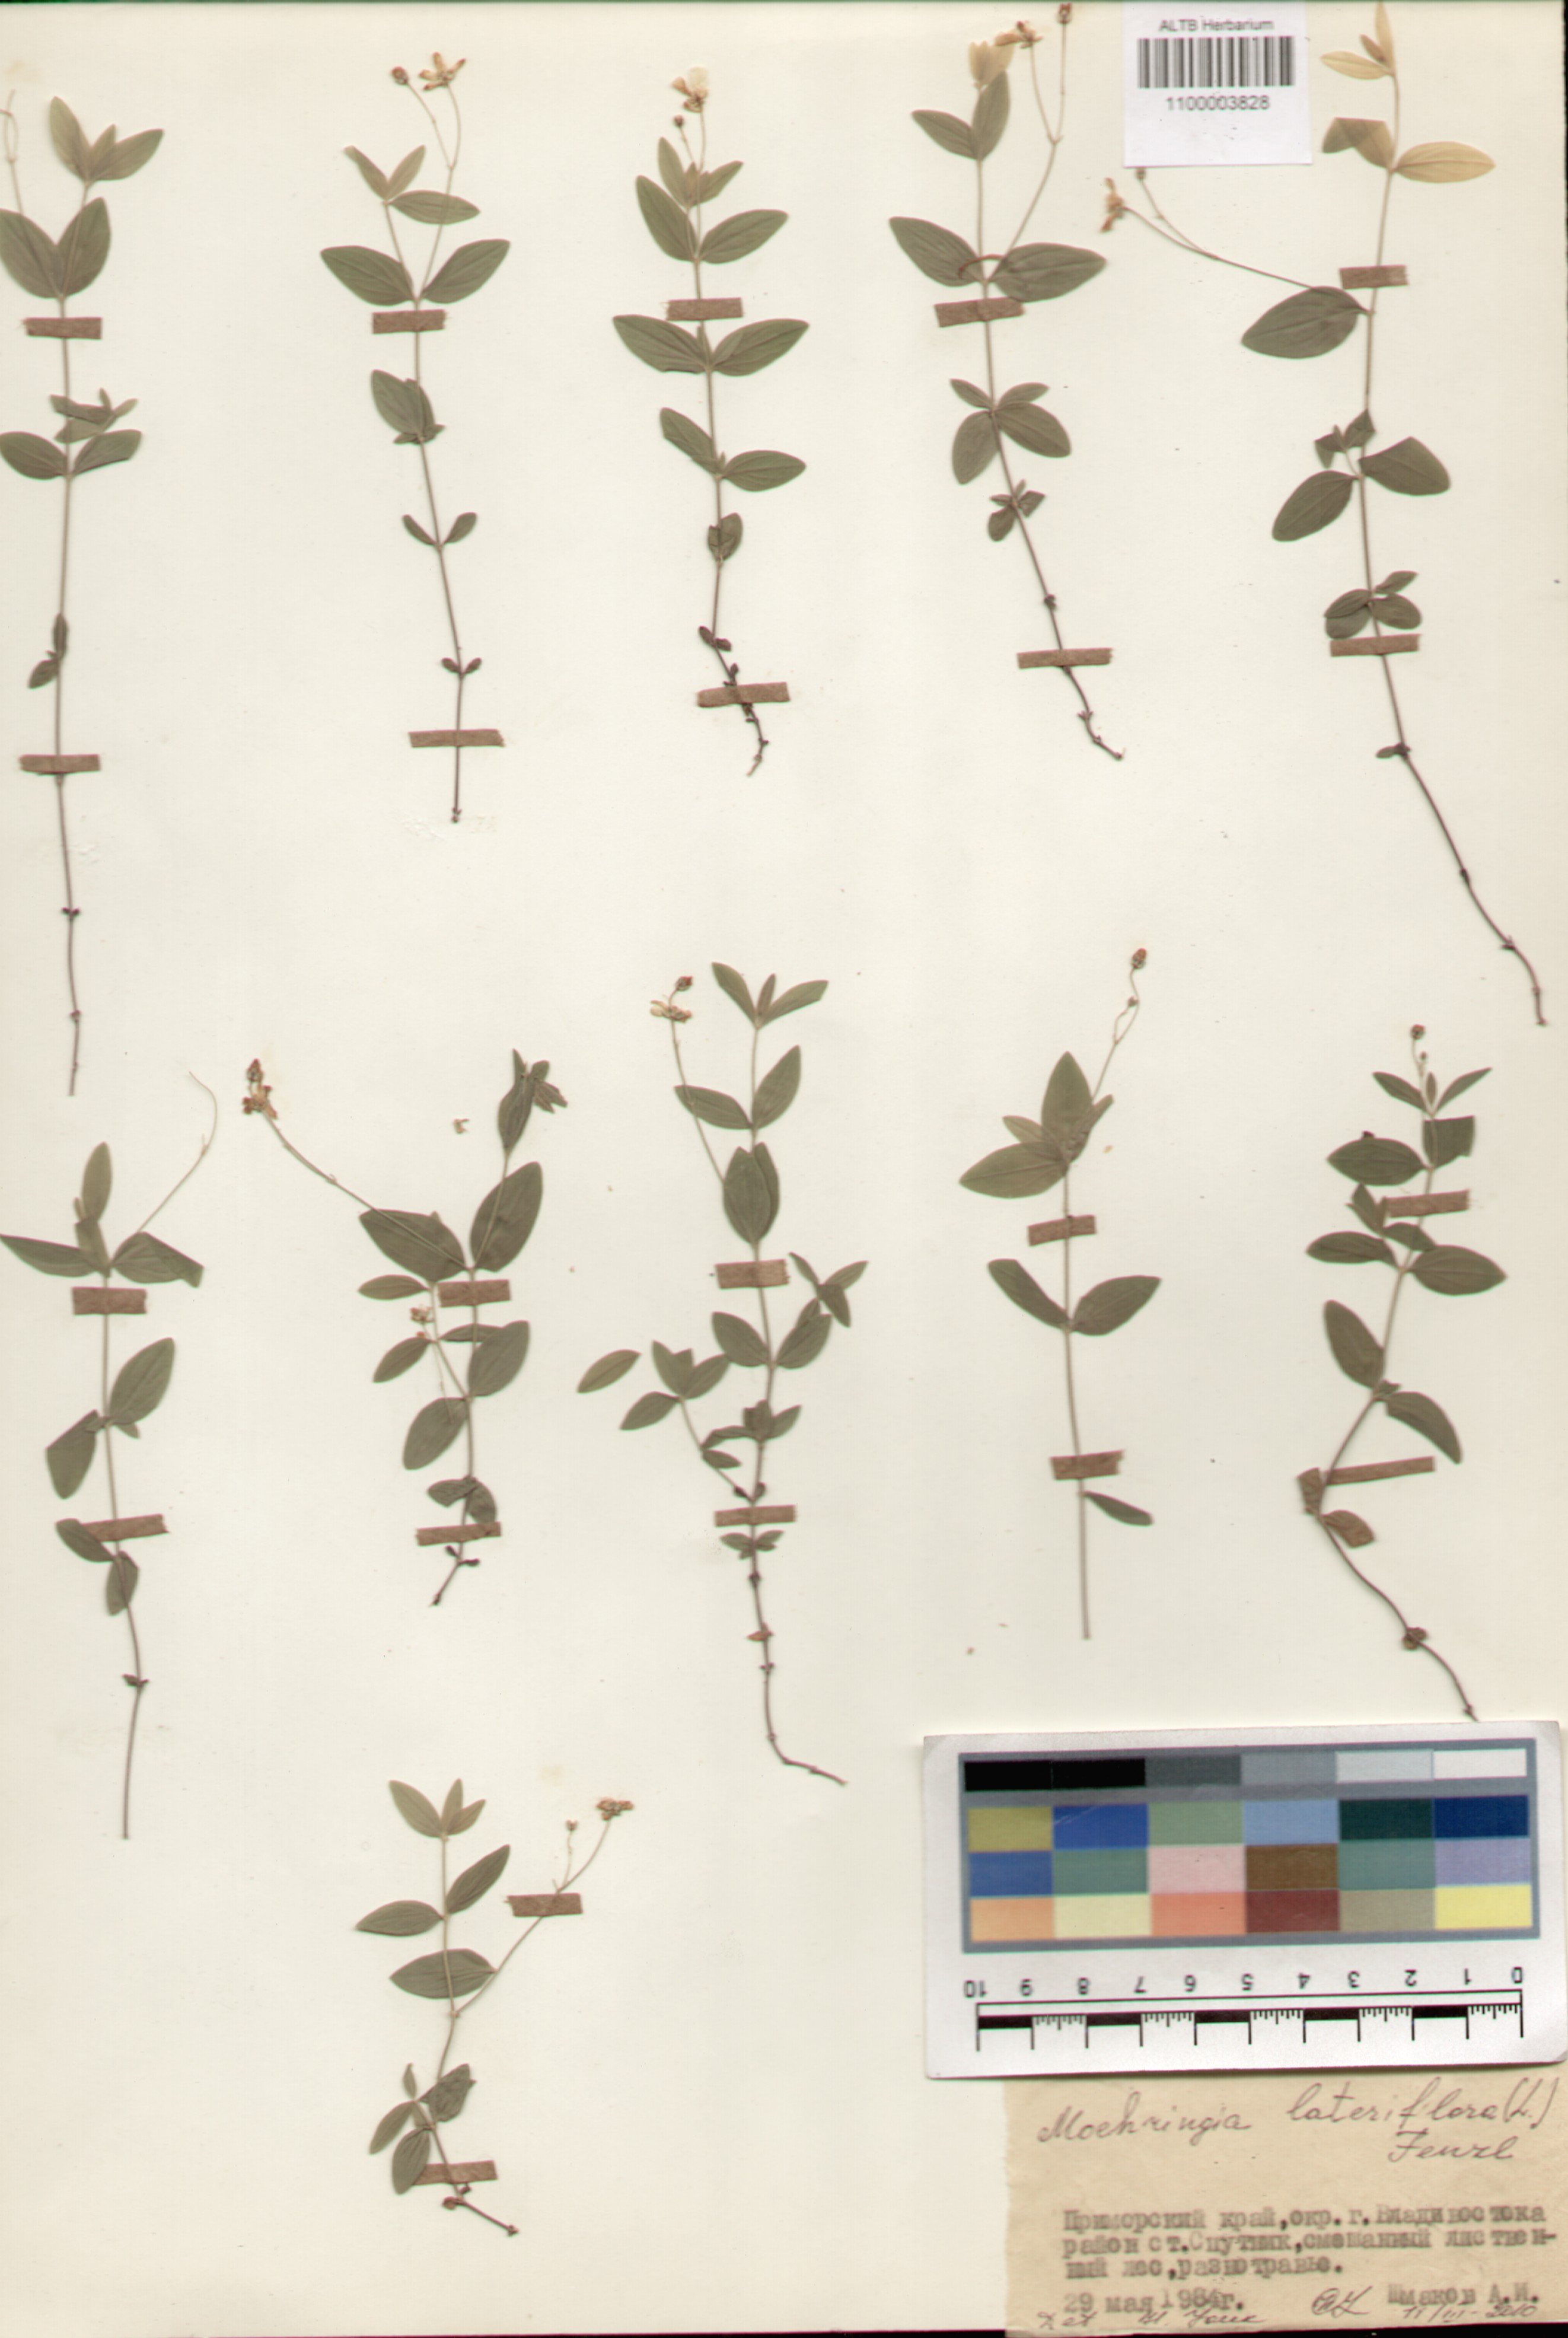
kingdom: Plantae
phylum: Tracheophyta
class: Magnoliopsida
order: Caryophyllales
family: Caryophyllaceae
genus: Moehringia
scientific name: Moehringia lateriflora
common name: Blunt-leaved sandwort
